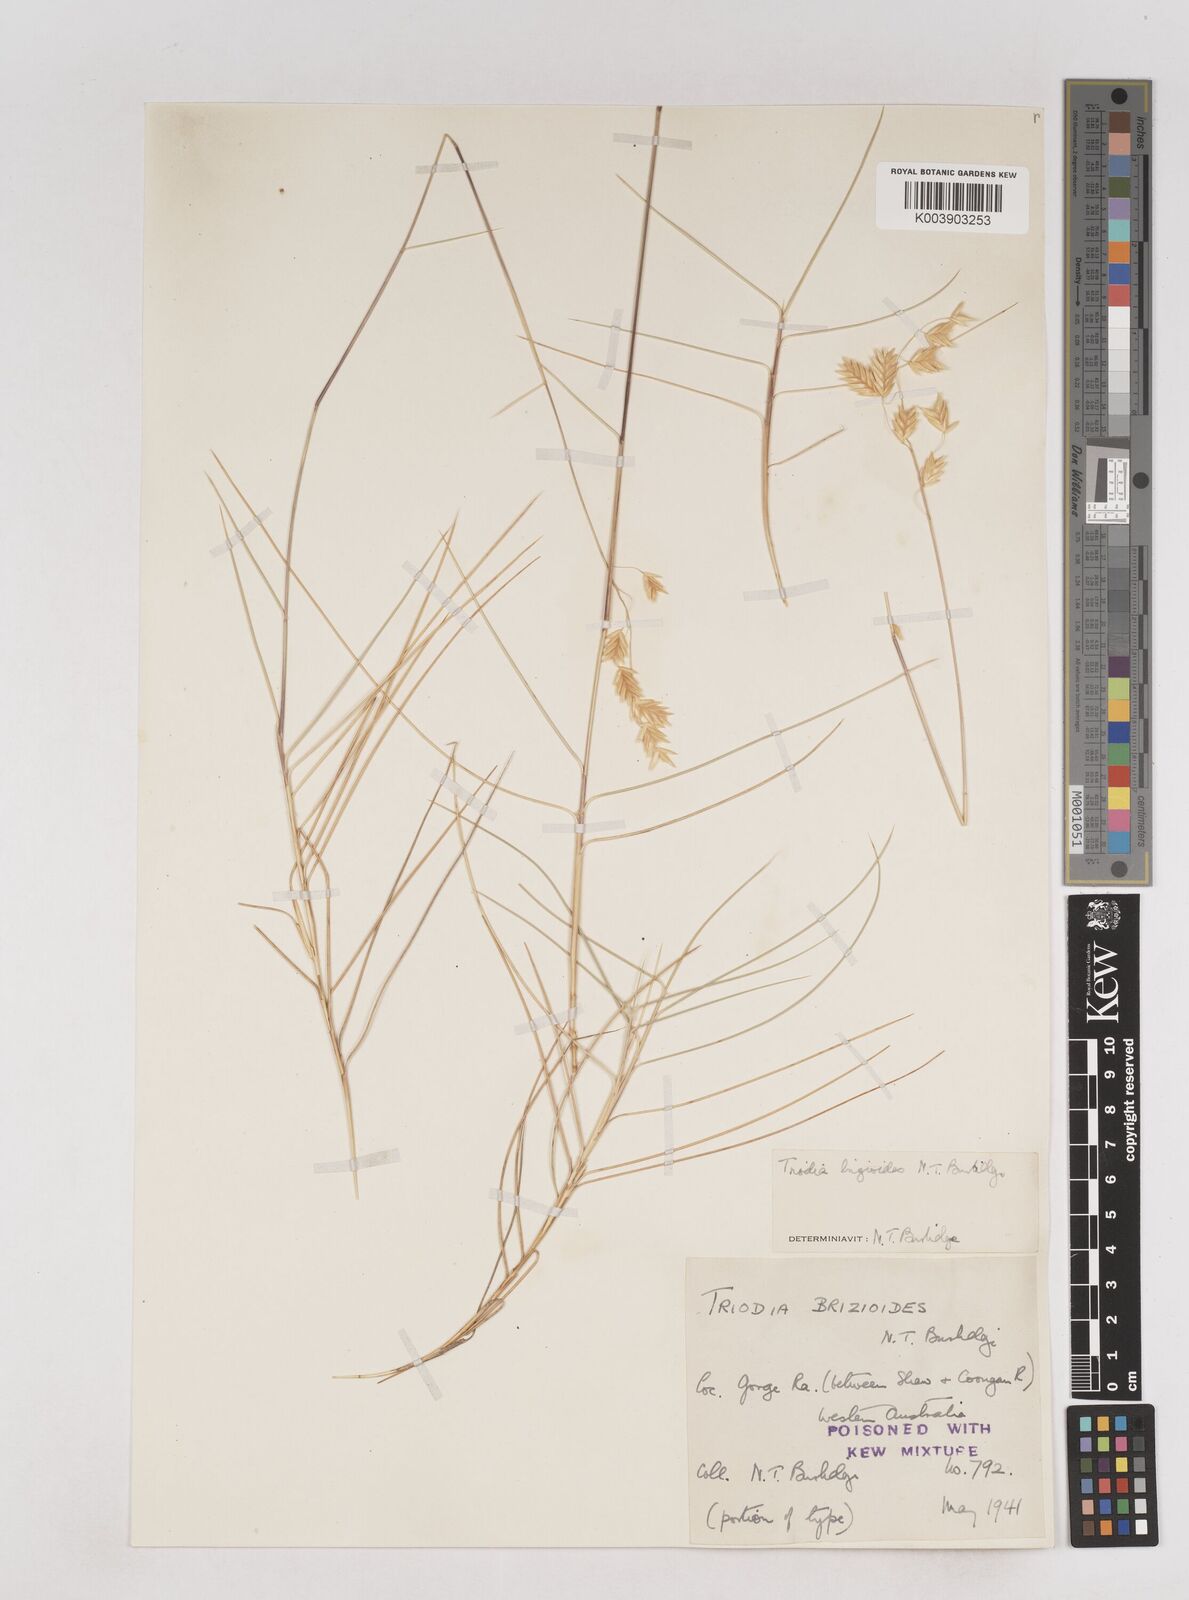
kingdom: Plantae
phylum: Tracheophyta
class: Liliopsida
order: Poales
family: Poaceae
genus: Triodia
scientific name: Triodia brizoides
